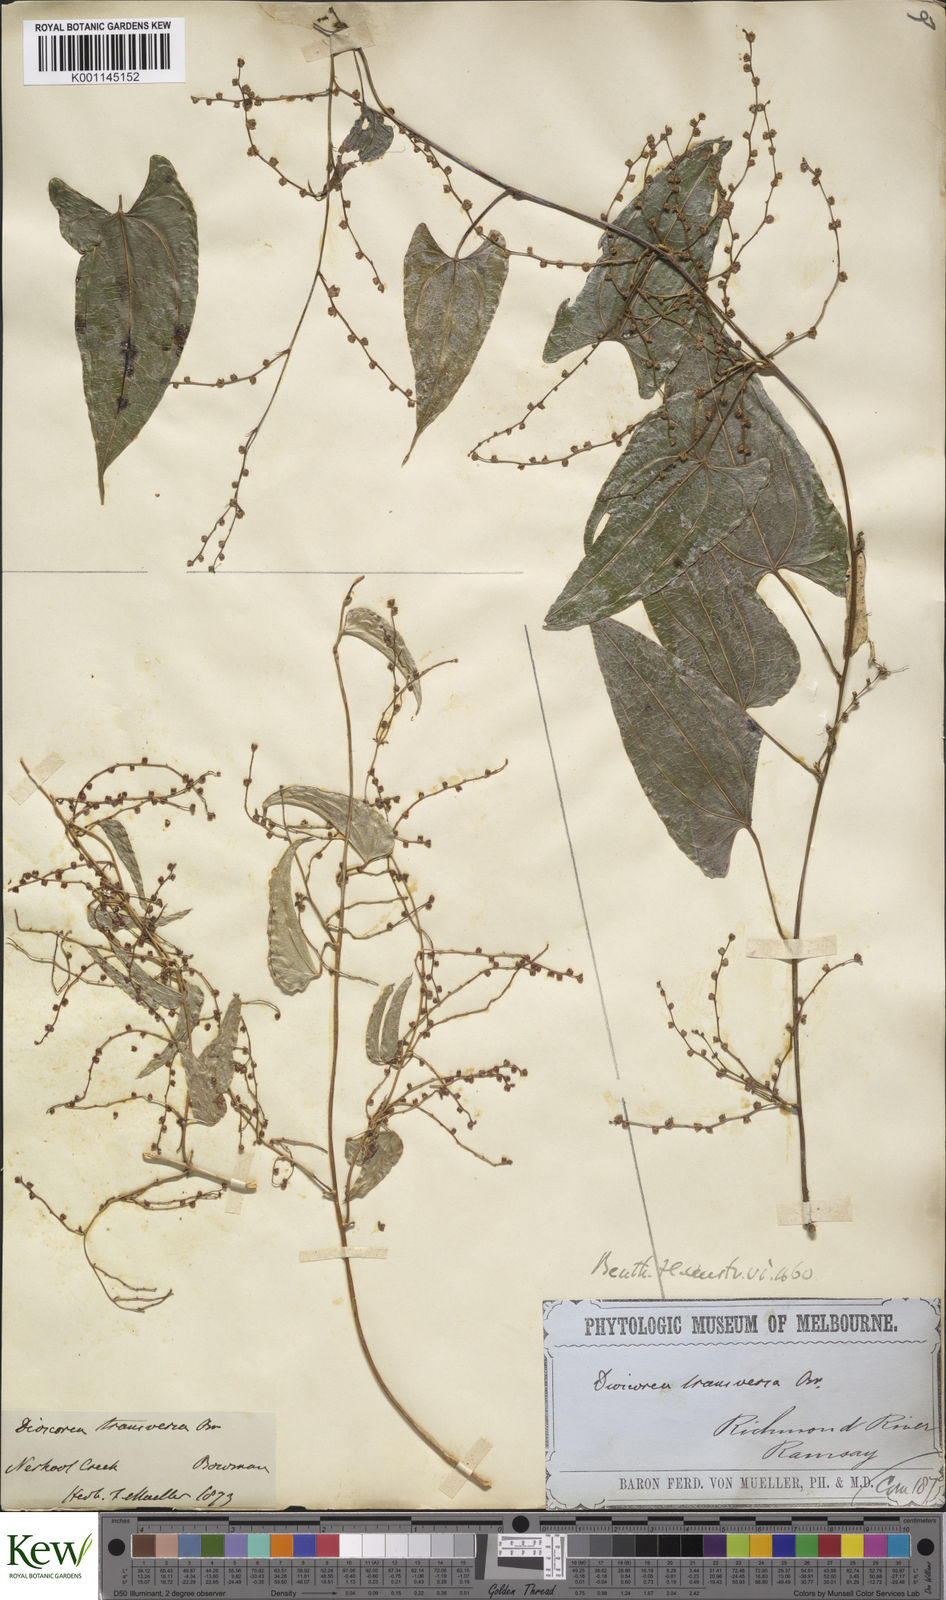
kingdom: Plantae
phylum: Tracheophyta
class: Liliopsida
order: Dioscoreales
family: Dioscoreaceae
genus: Dioscorea
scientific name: Dioscorea transversa
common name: Long yam
